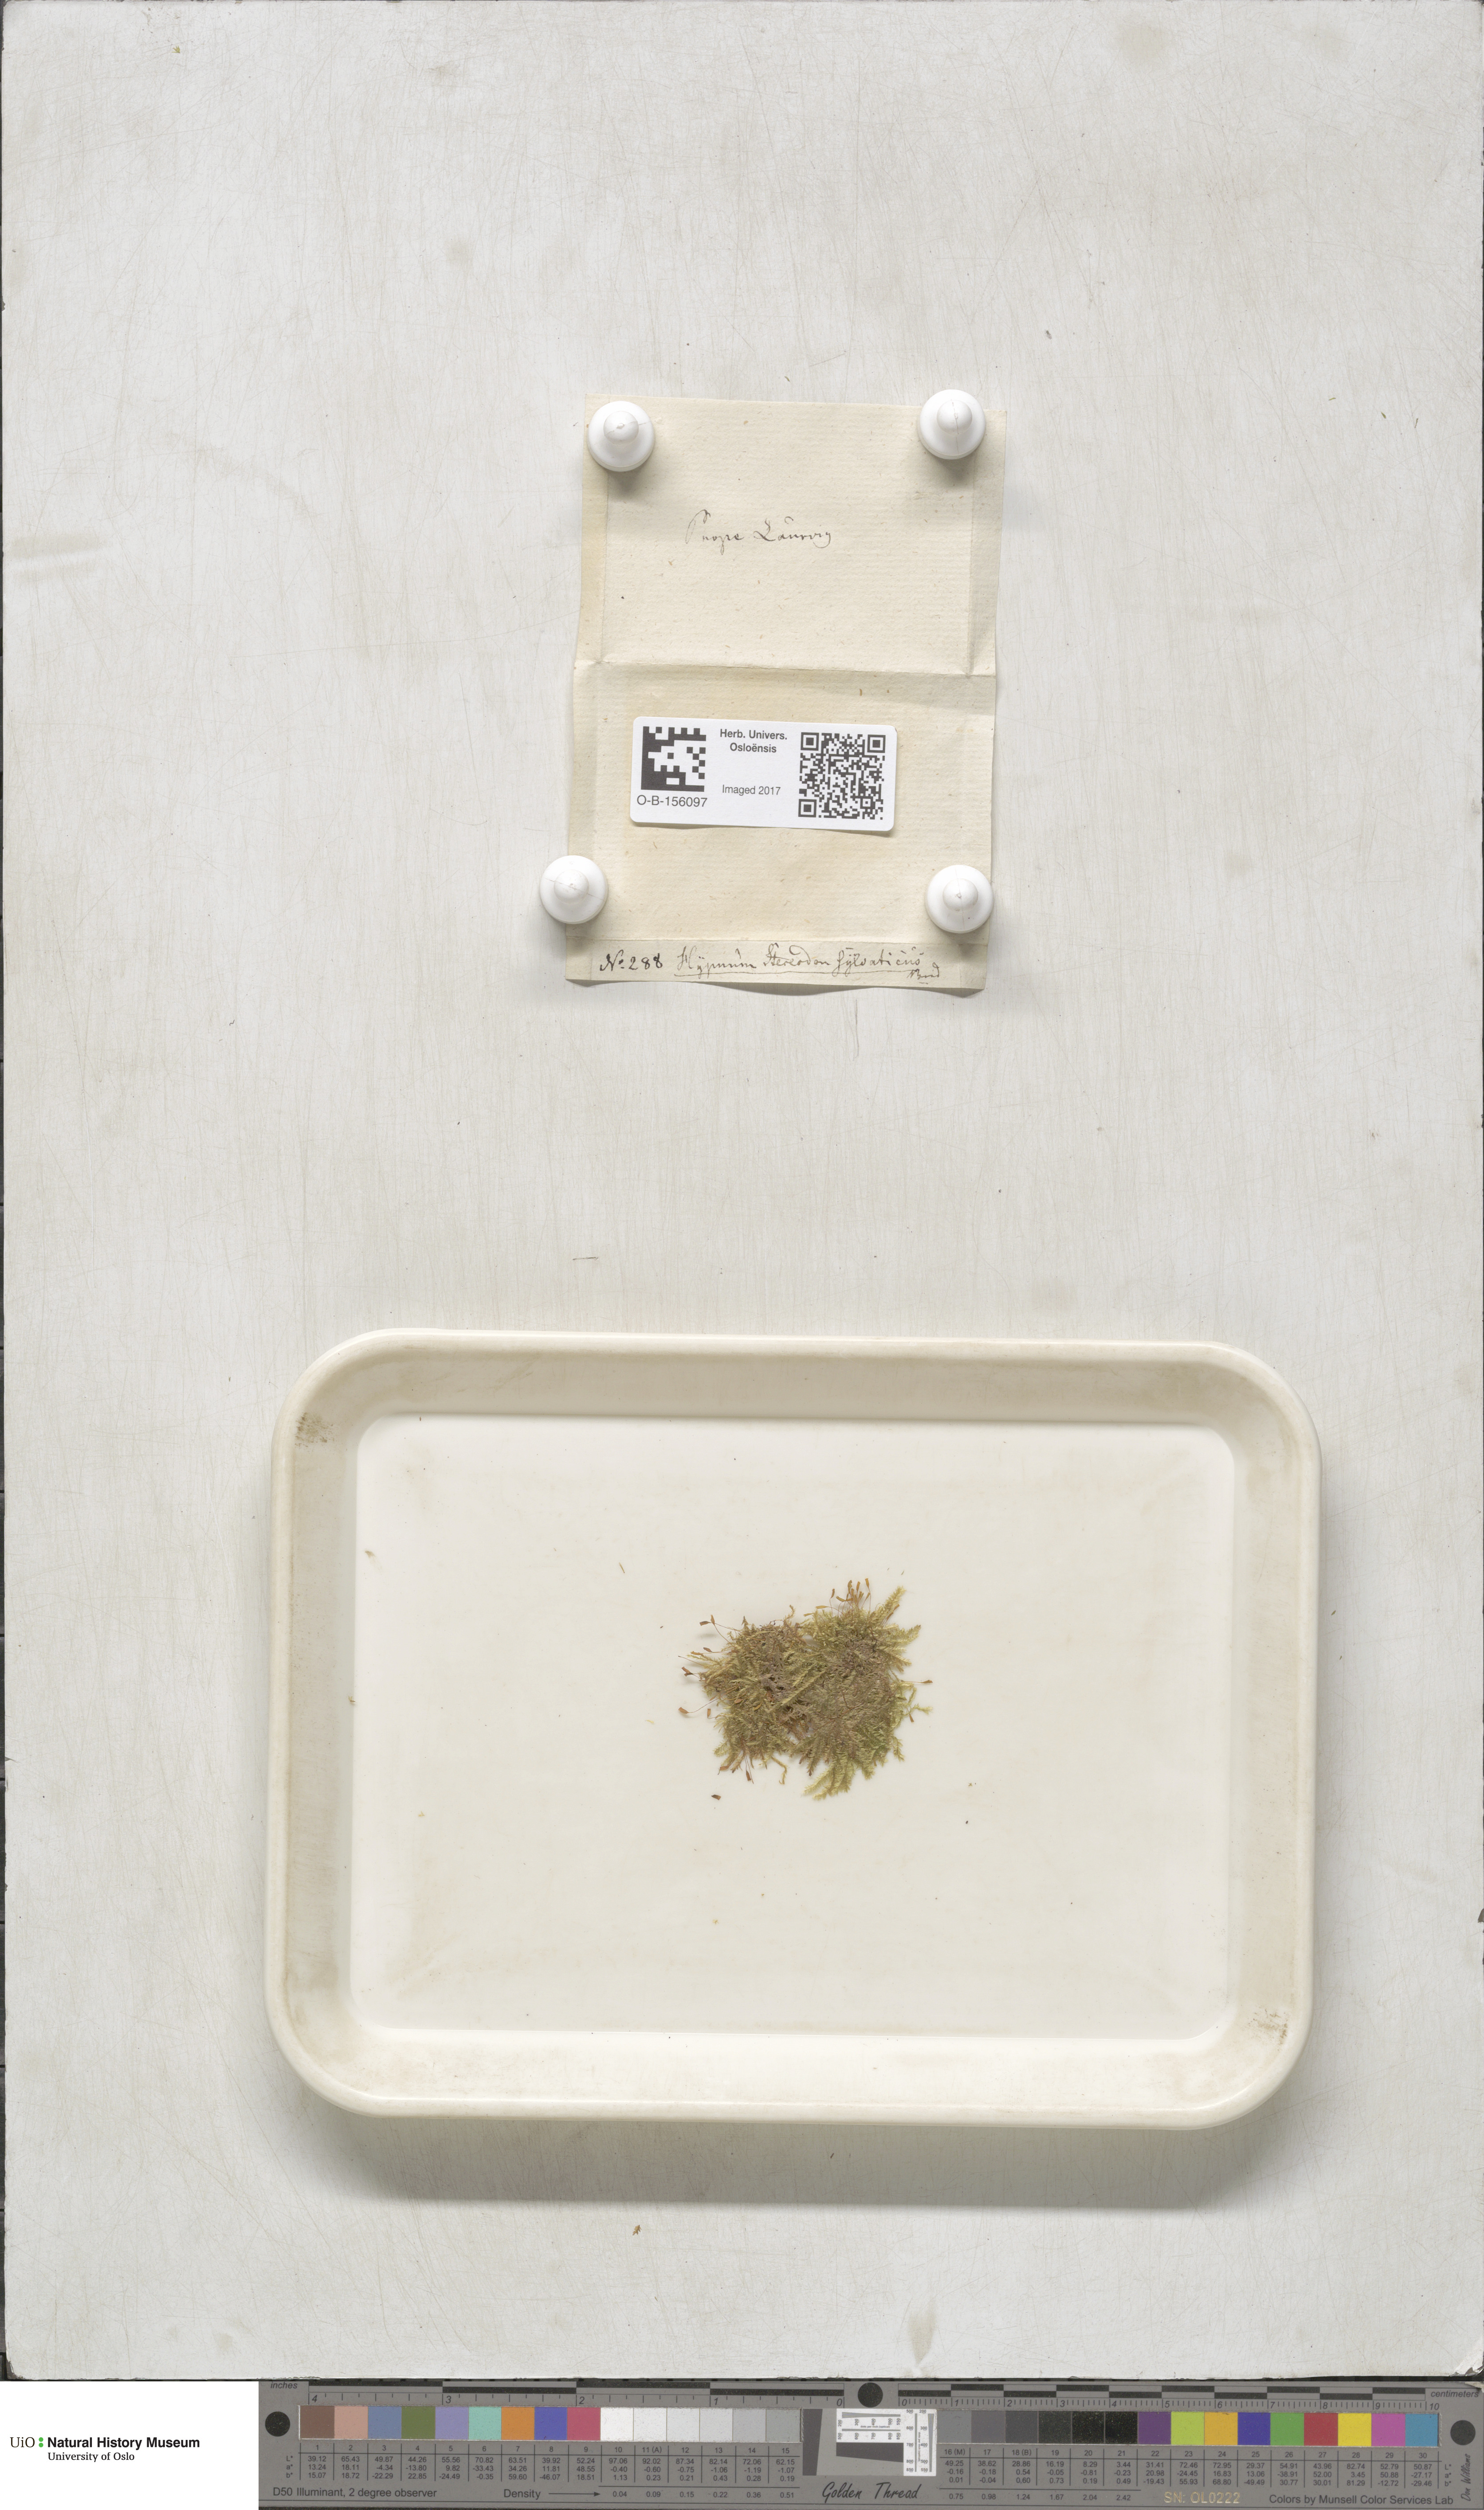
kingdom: Plantae
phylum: Bryophyta
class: Bryopsida
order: Hypnales
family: Plagiotheciaceae
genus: Plagiothecium
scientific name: Plagiothecium nemorale
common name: Woodsy silk-moss
